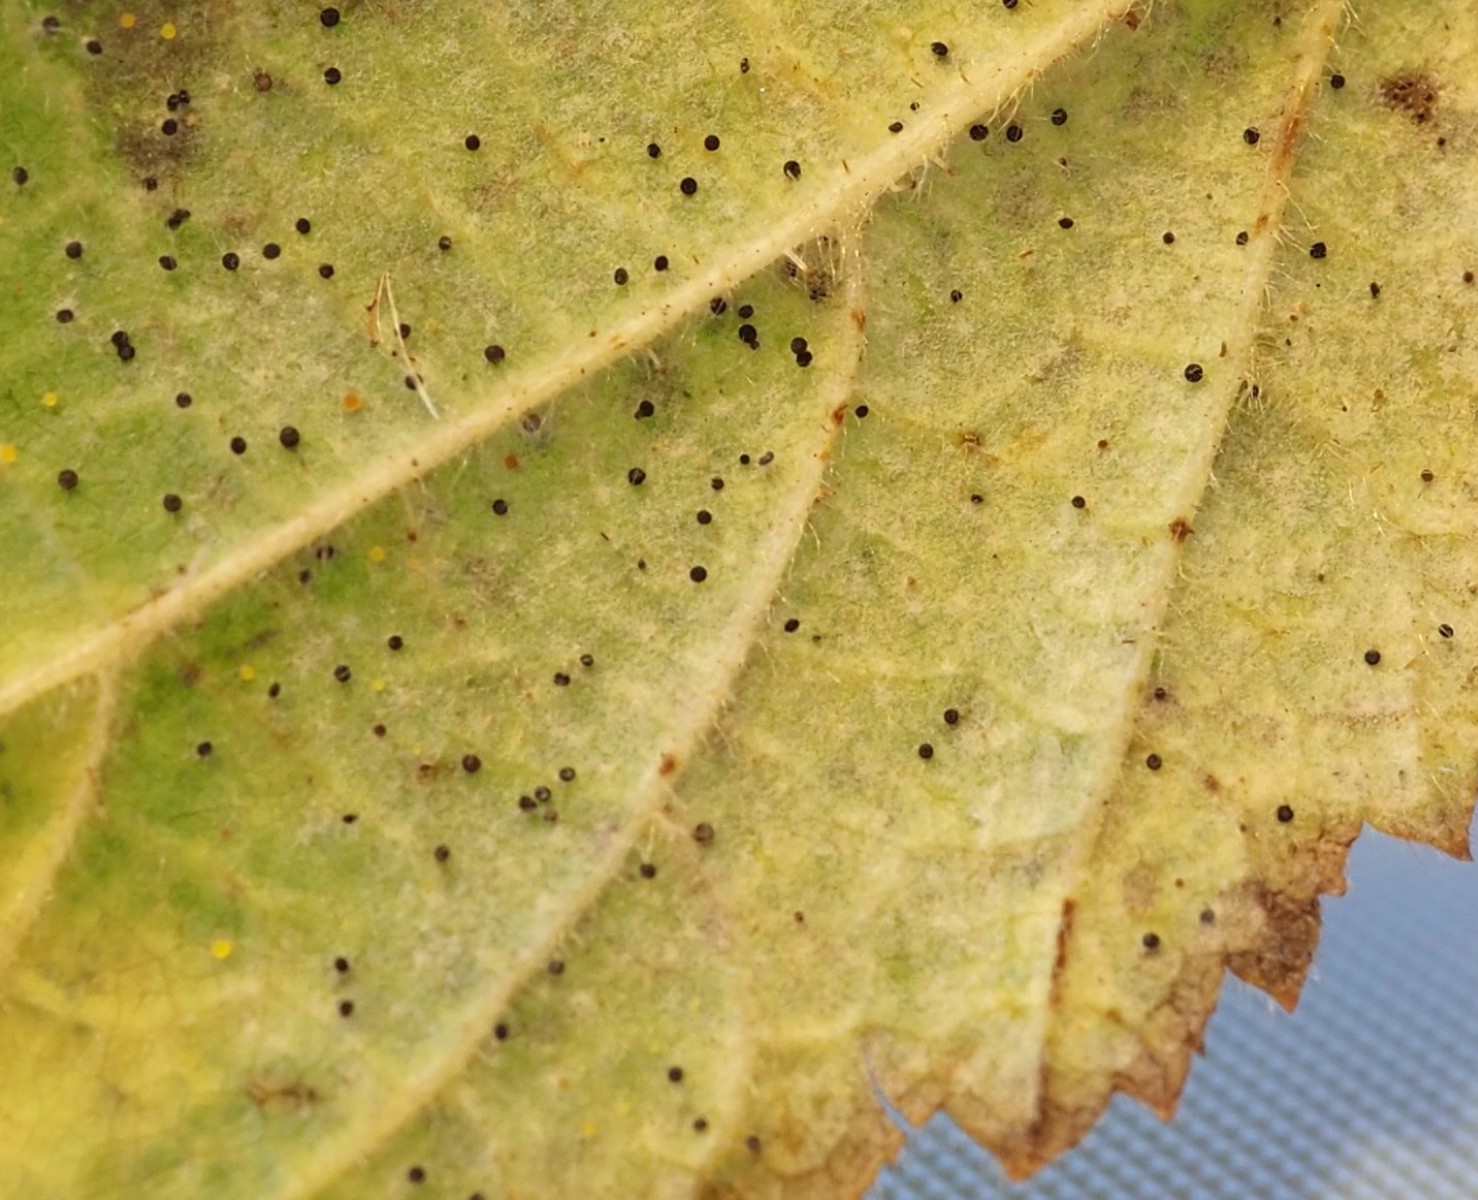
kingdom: Fungi
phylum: Ascomycota
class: Leotiomycetes
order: Helotiales
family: Erysiphaceae
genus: Phyllactinia
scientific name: Phyllactinia guttata
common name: hassel-meldug
